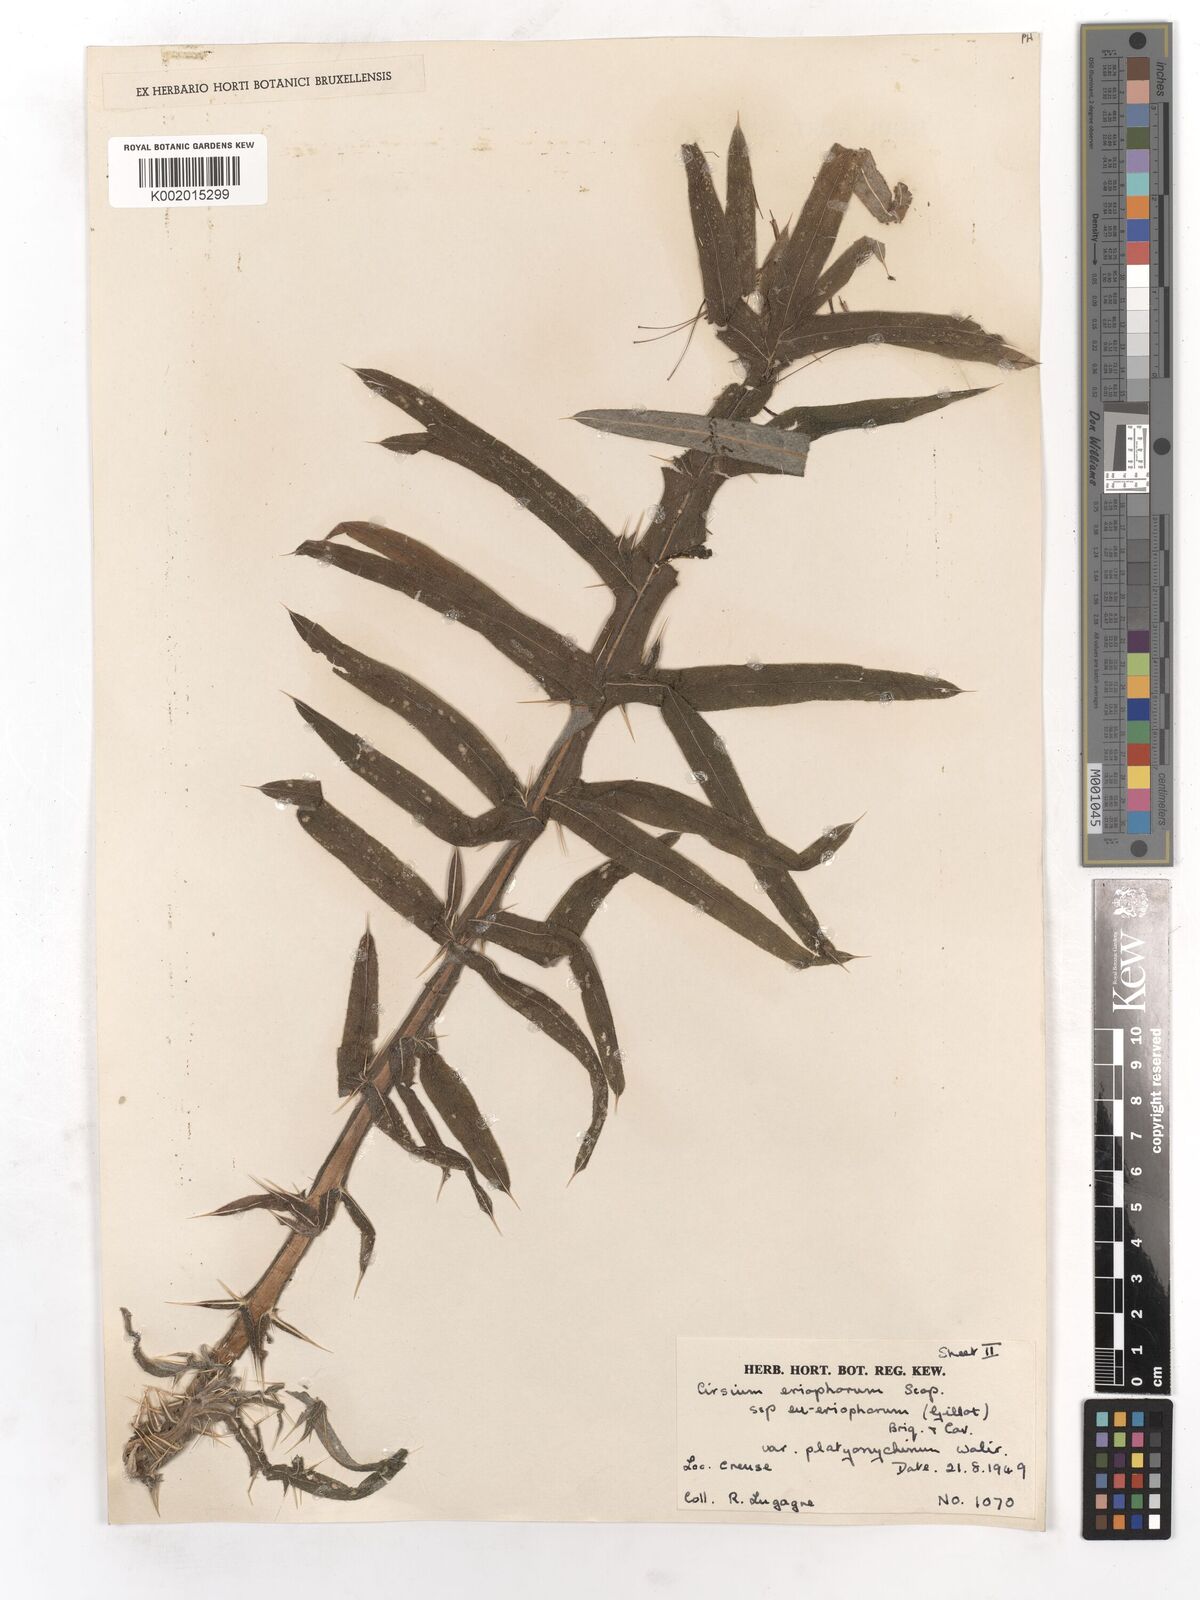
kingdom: Plantae
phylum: Tracheophyta
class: Magnoliopsida
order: Asterales
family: Asteraceae
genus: Lophiolepis
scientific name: Lophiolepis eriophora
